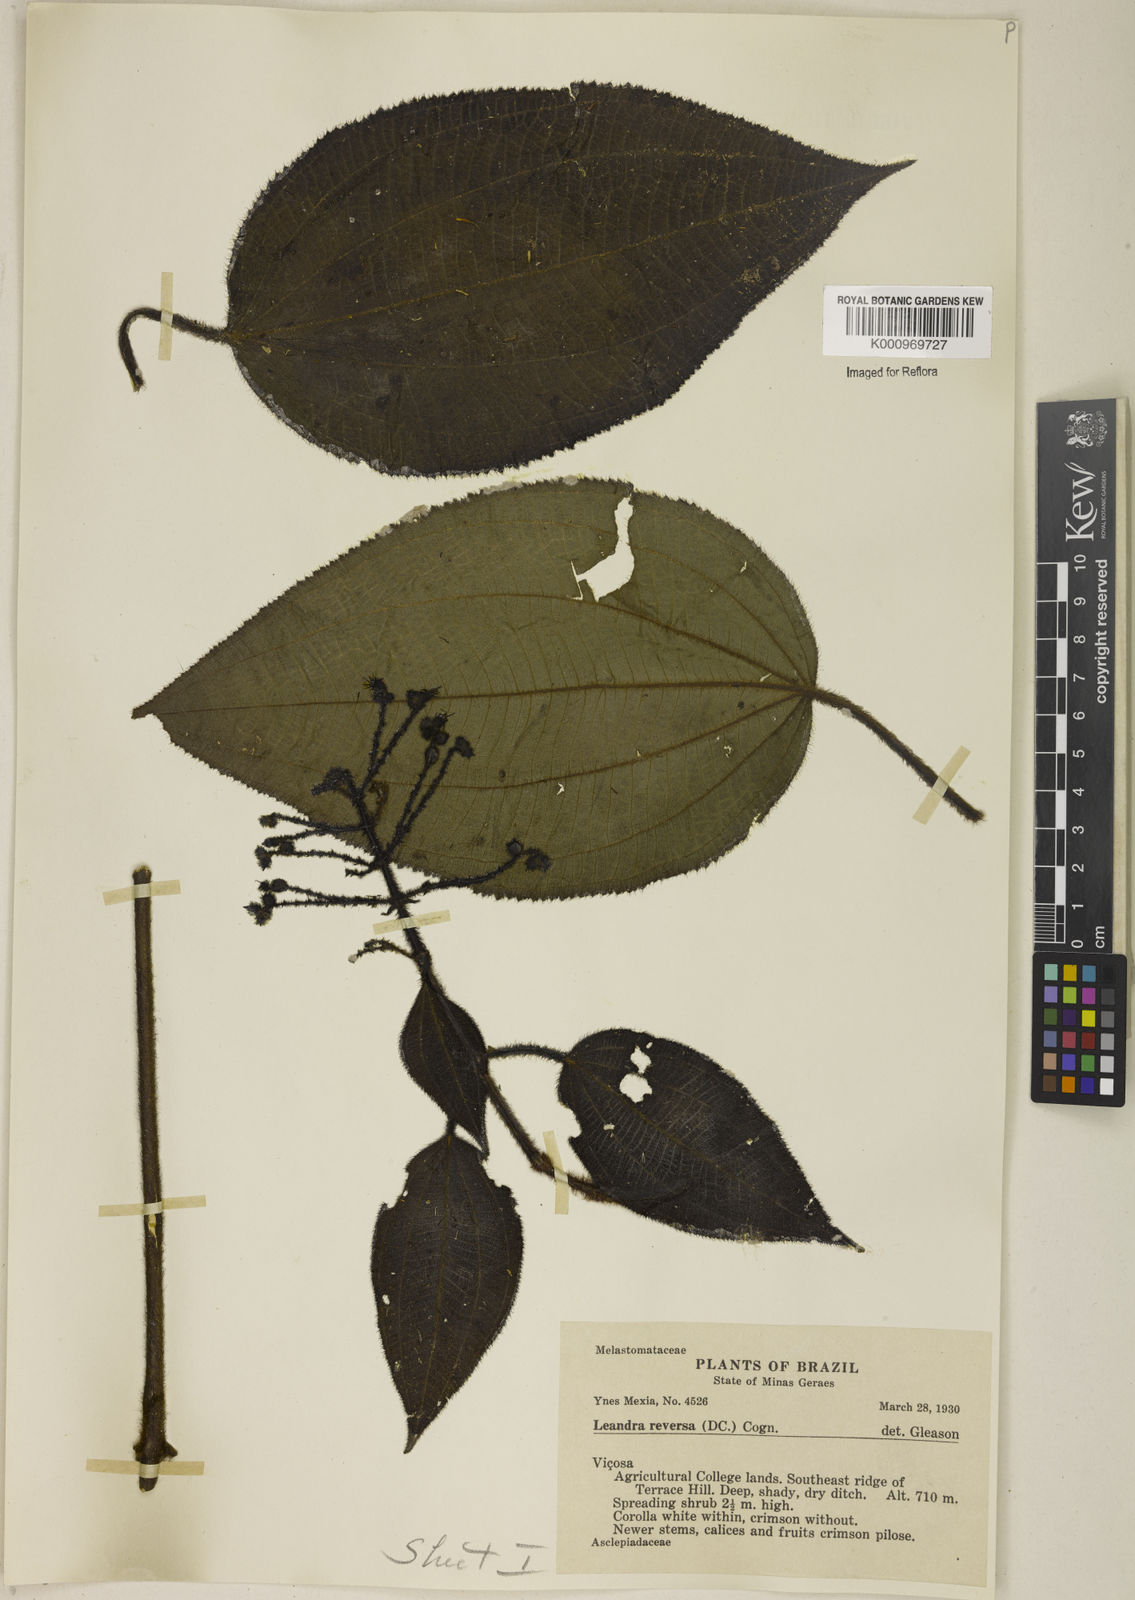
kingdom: Plantae
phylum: Tracheophyta
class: Magnoliopsida
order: Myrtales
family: Melastomataceae
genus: Miconia
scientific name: Miconia reversa
